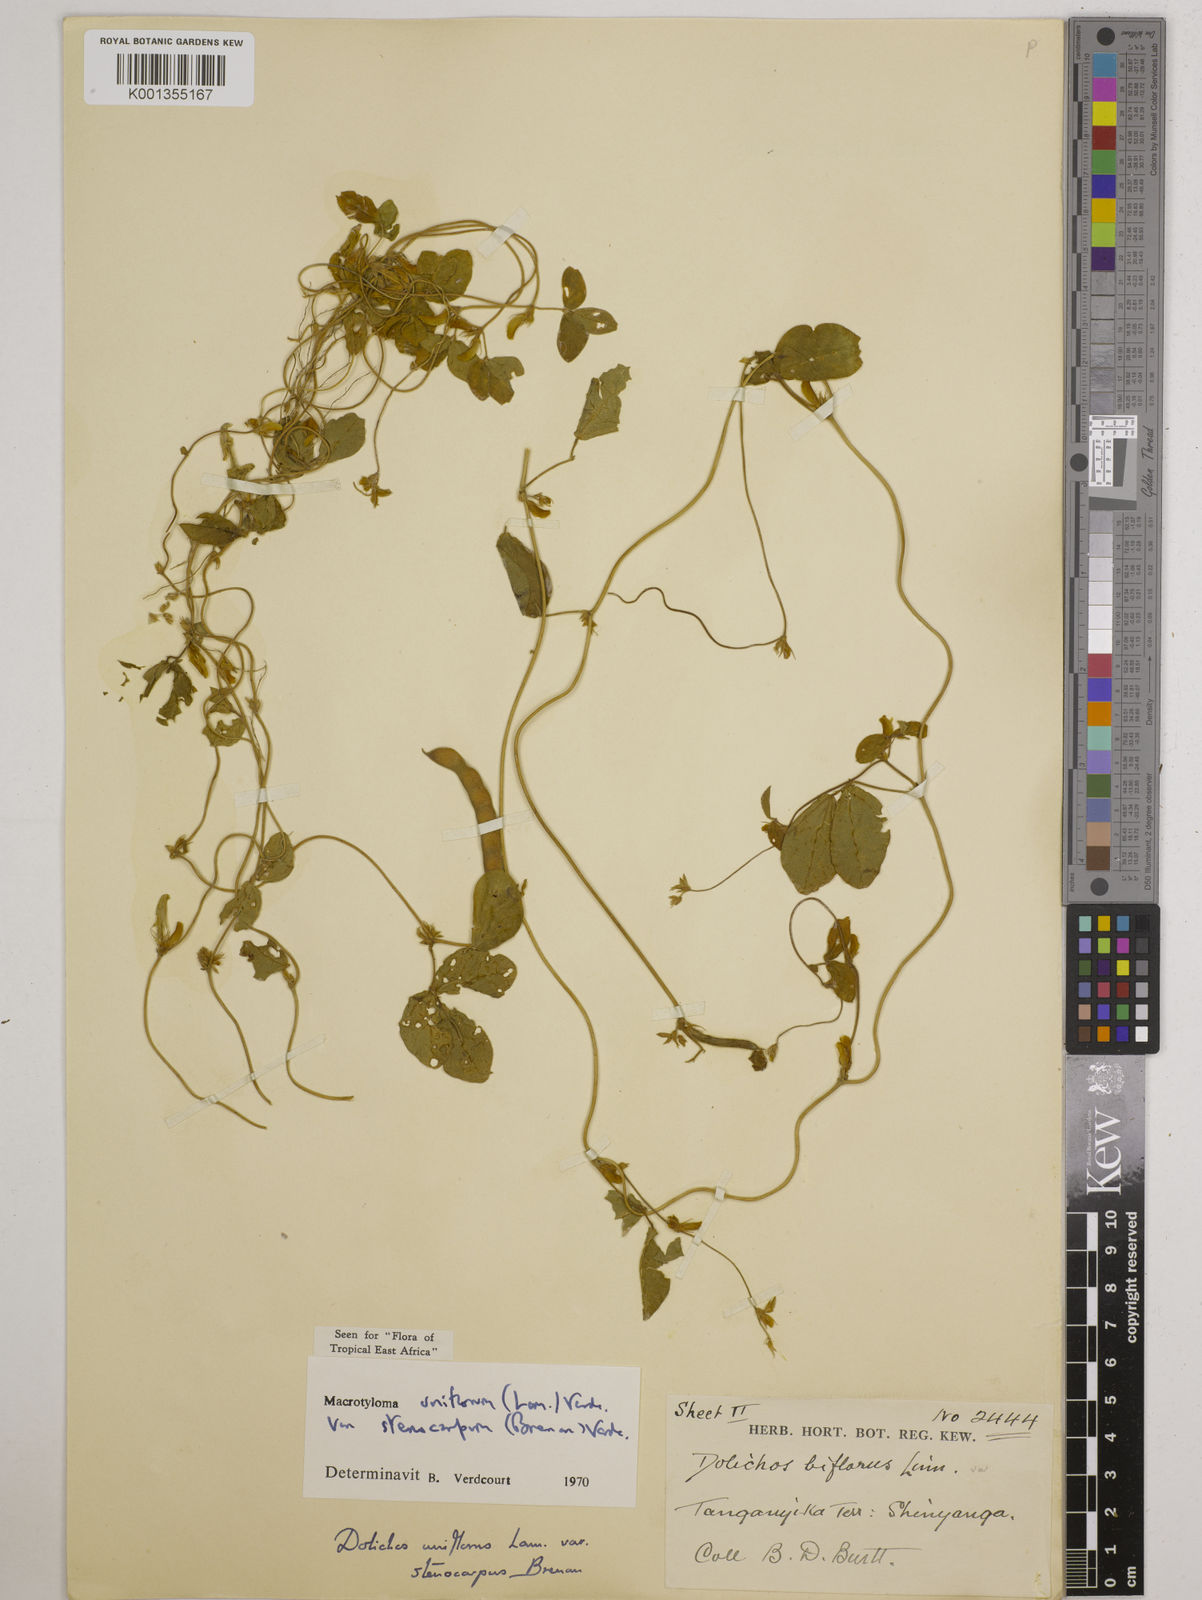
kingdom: Plantae
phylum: Tracheophyta
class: Magnoliopsida
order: Fabales
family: Fabaceae
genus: Macrotyloma
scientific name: Macrotyloma
